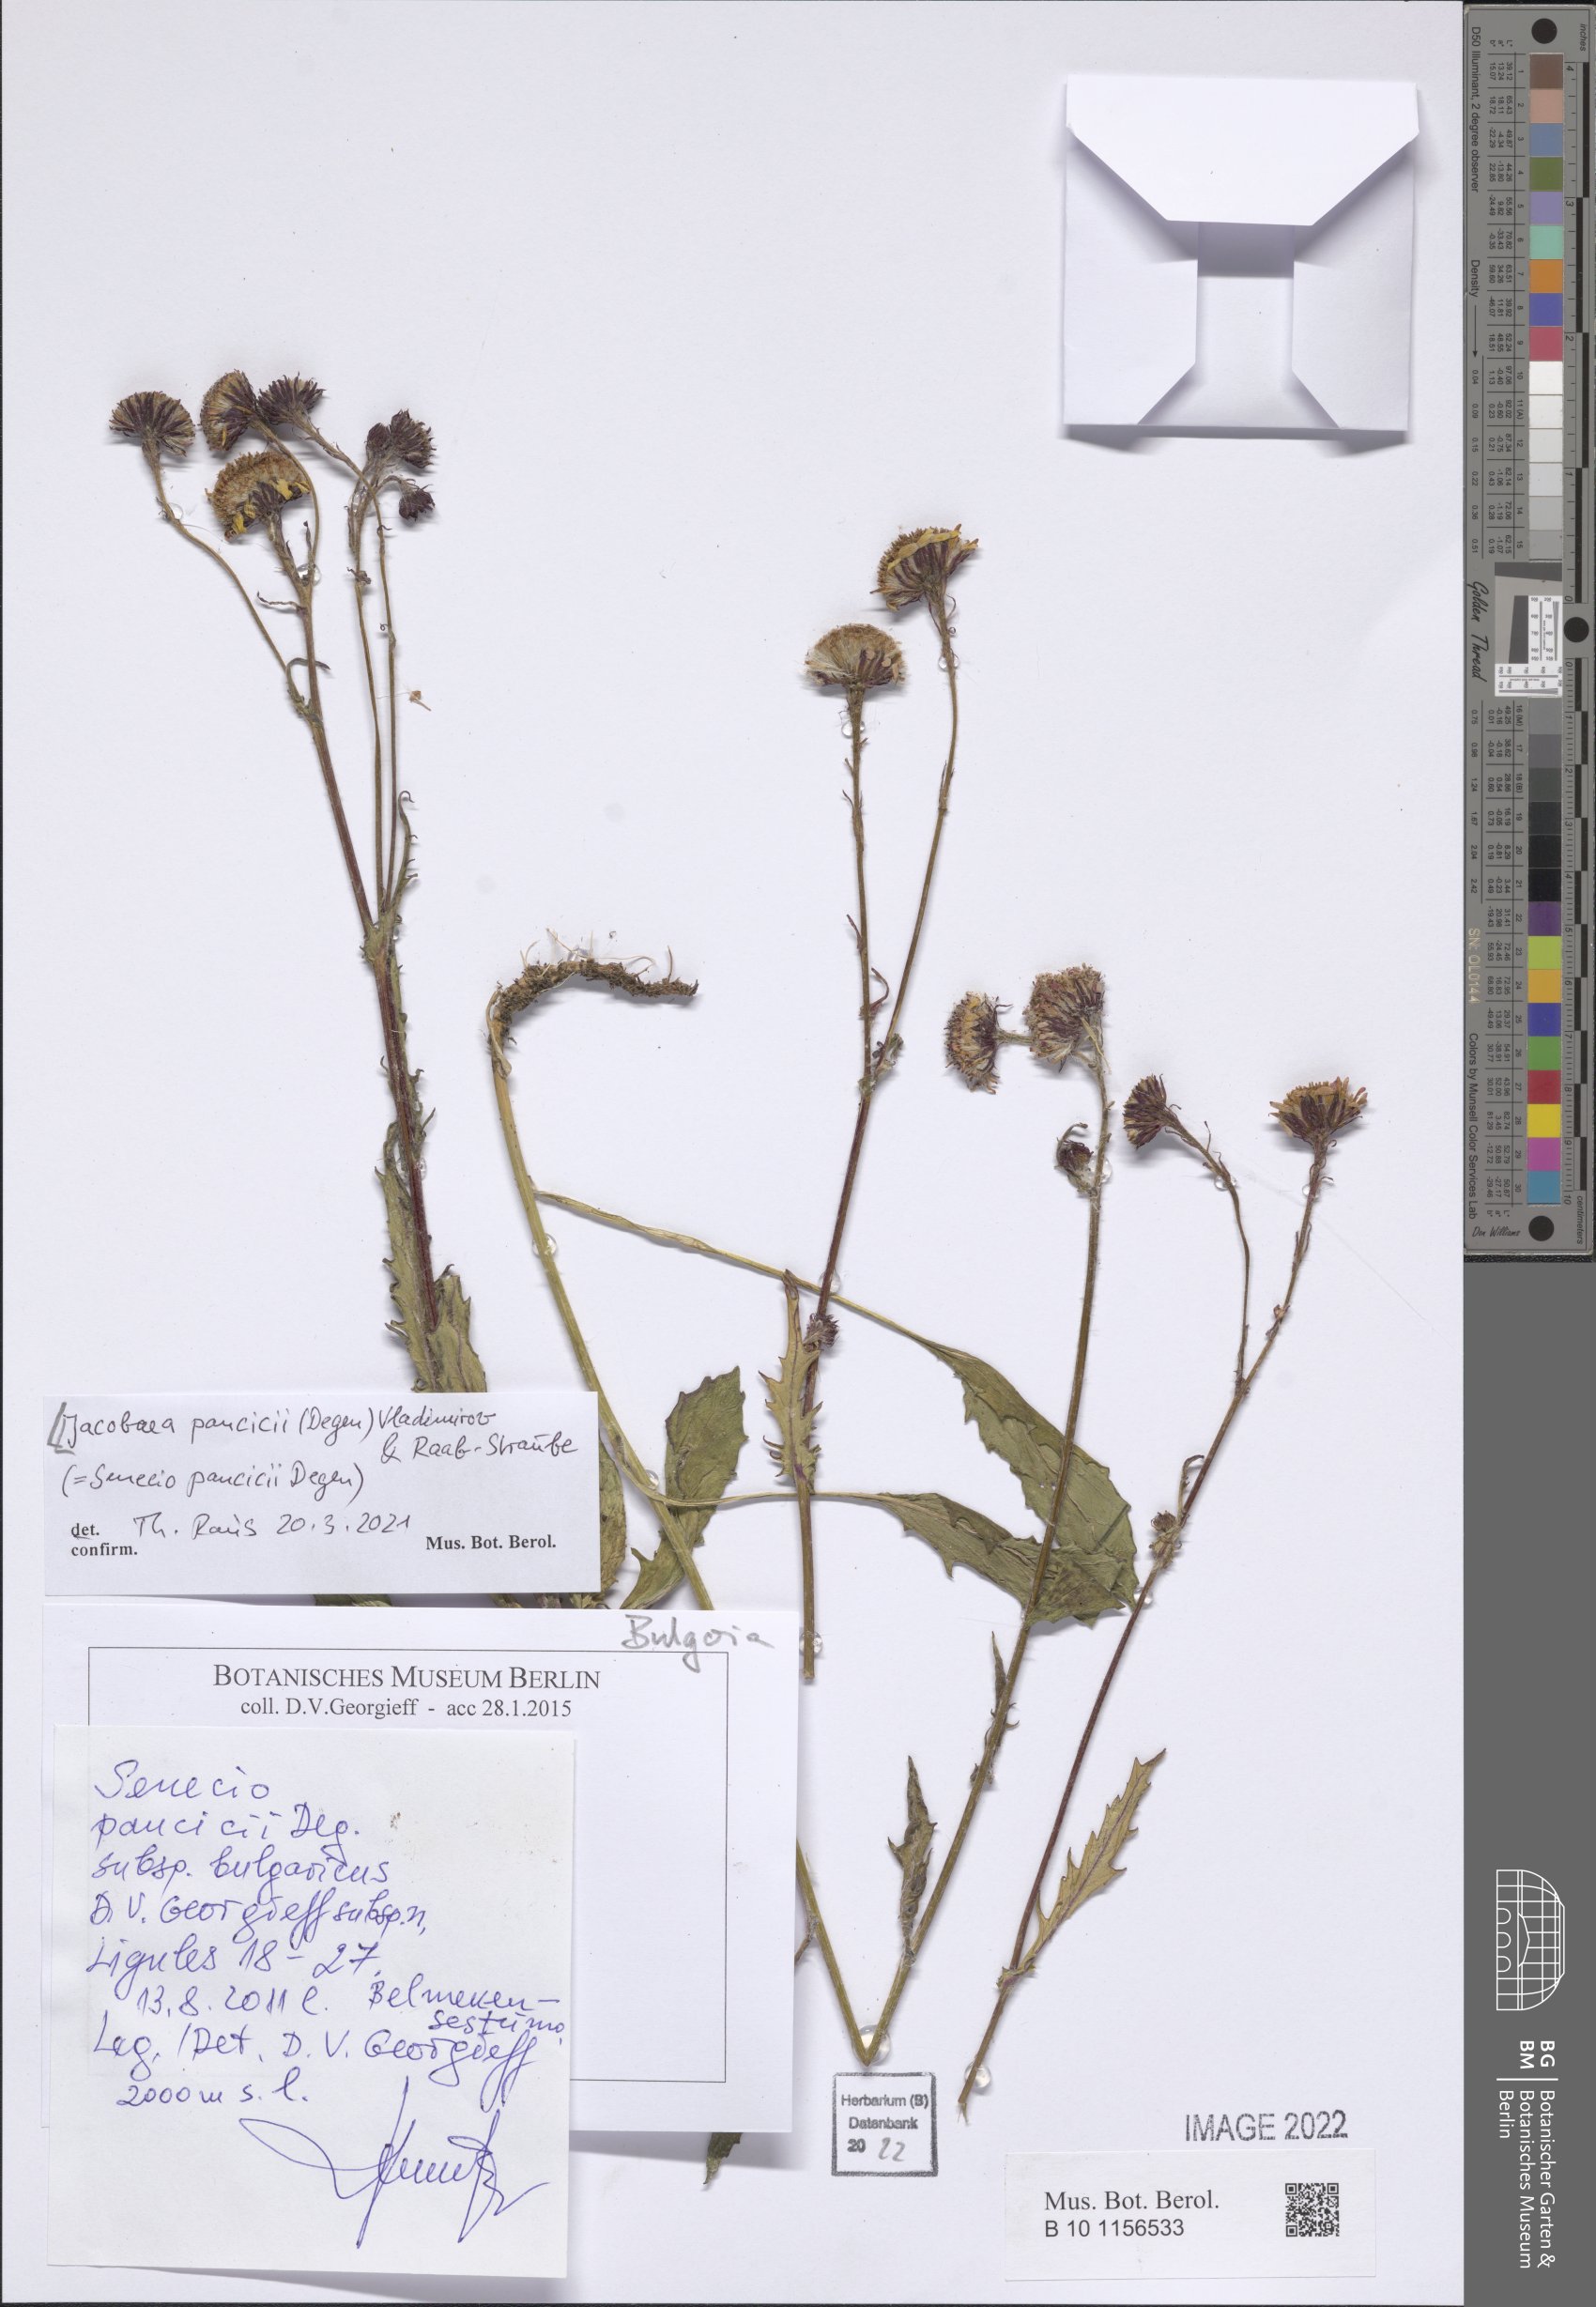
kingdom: Plantae
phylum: Tracheophyta
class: Magnoliopsida
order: Asterales
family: Asteraceae
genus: Jacobaea
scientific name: Jacobaea pancicii
